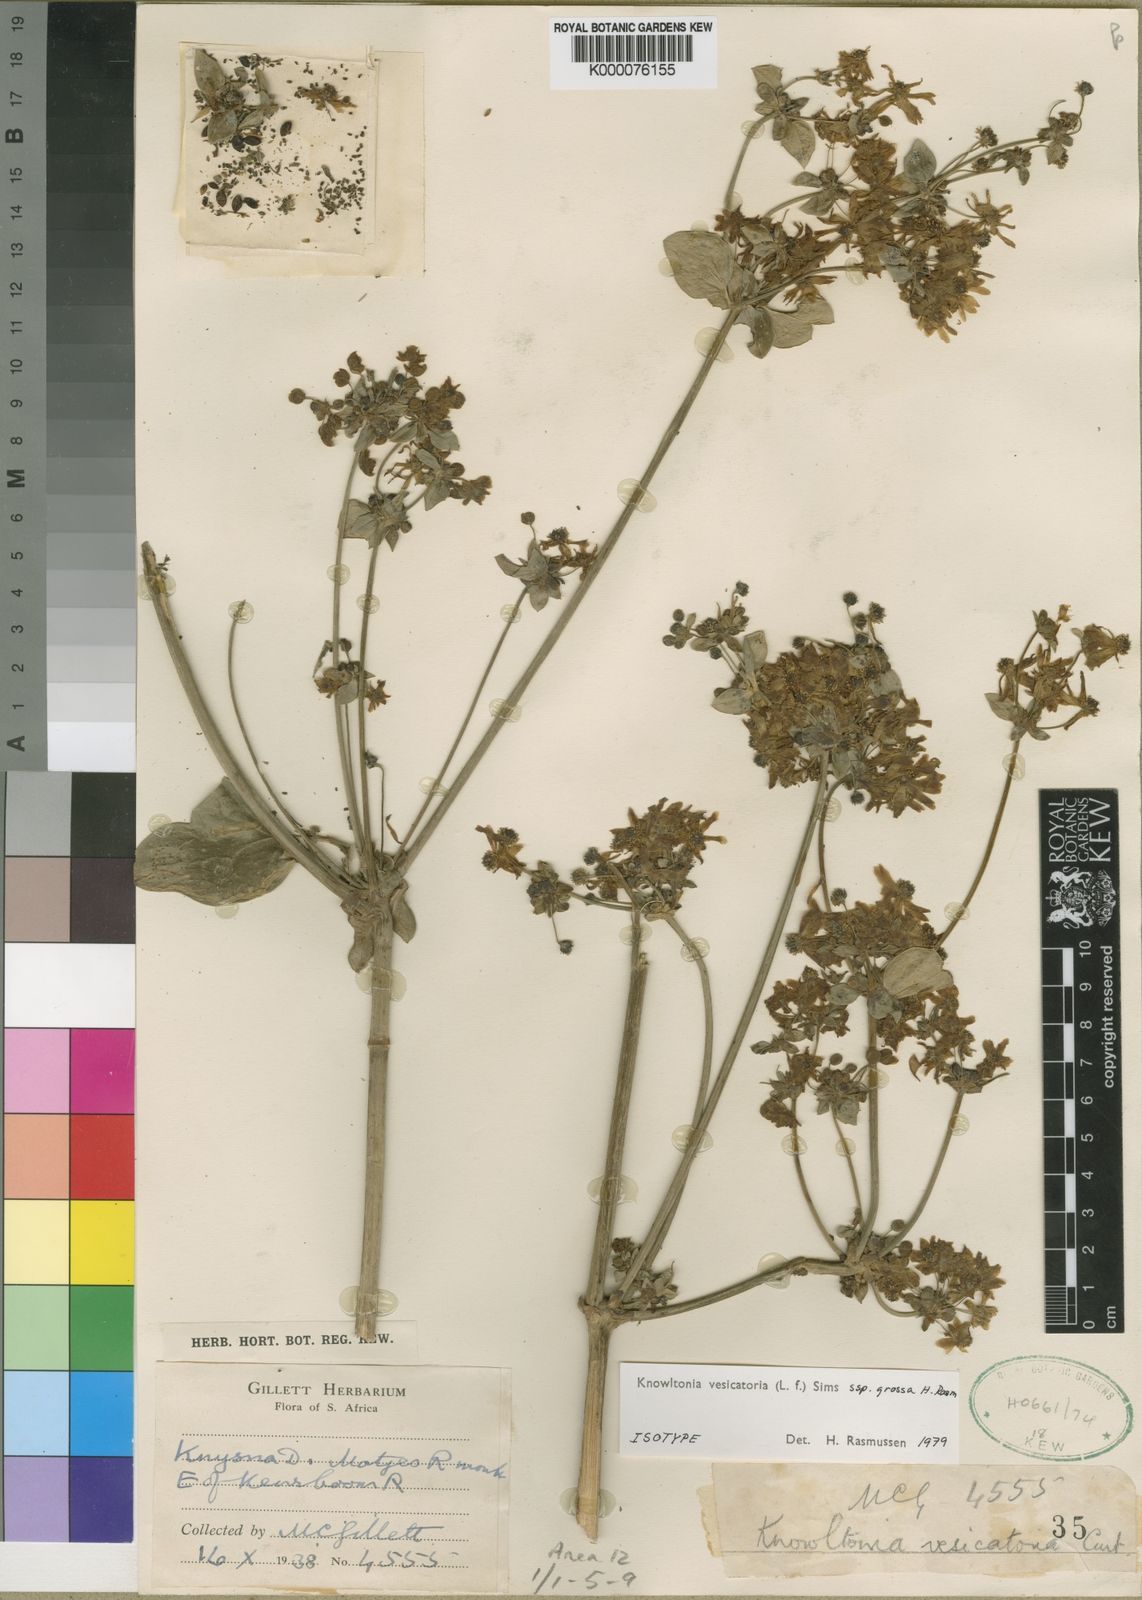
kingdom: Plantae
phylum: Tracheophyta
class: Magnoliopsida
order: Ranunculales
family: Ranunculaceae
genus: Knowltonia
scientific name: Knowltonia vesicatoria
